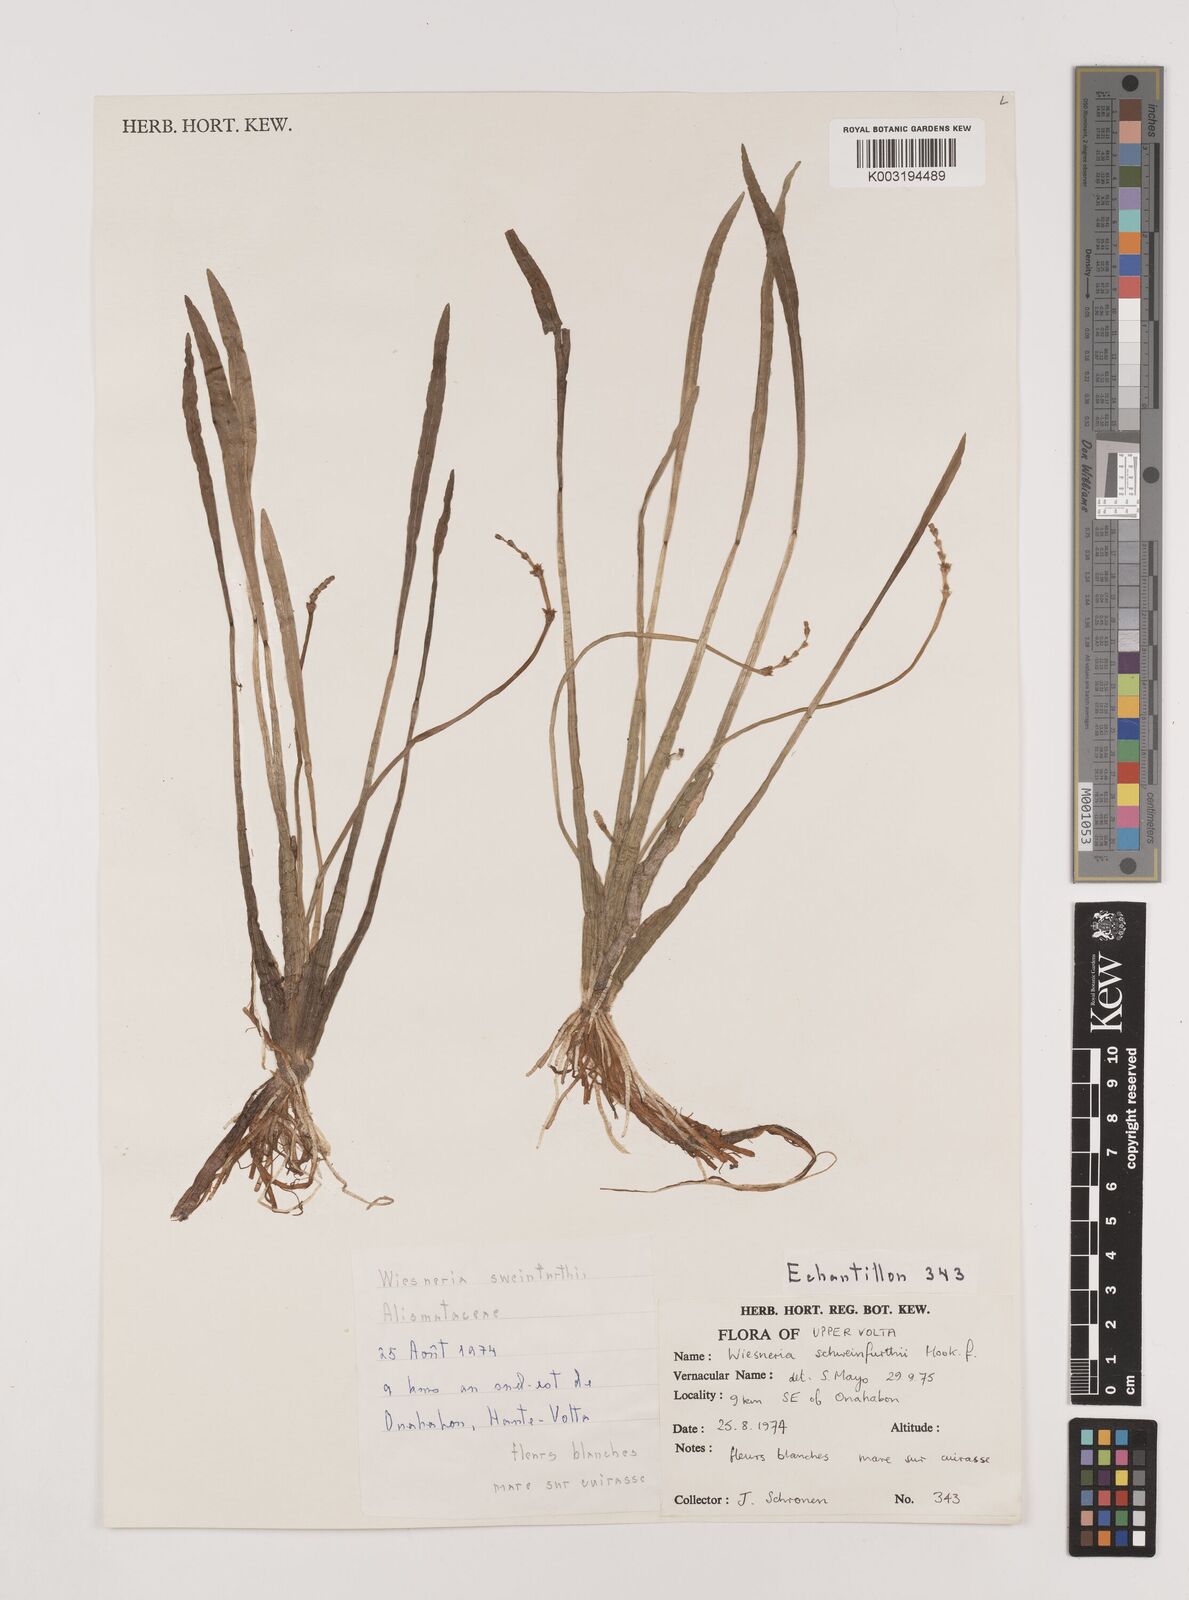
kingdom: Plantae
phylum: Tracheophyta
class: Liliopsida
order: Alismatales
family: Alismataceae
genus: Wiesneria
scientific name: Wiesneria schweinfurthii
